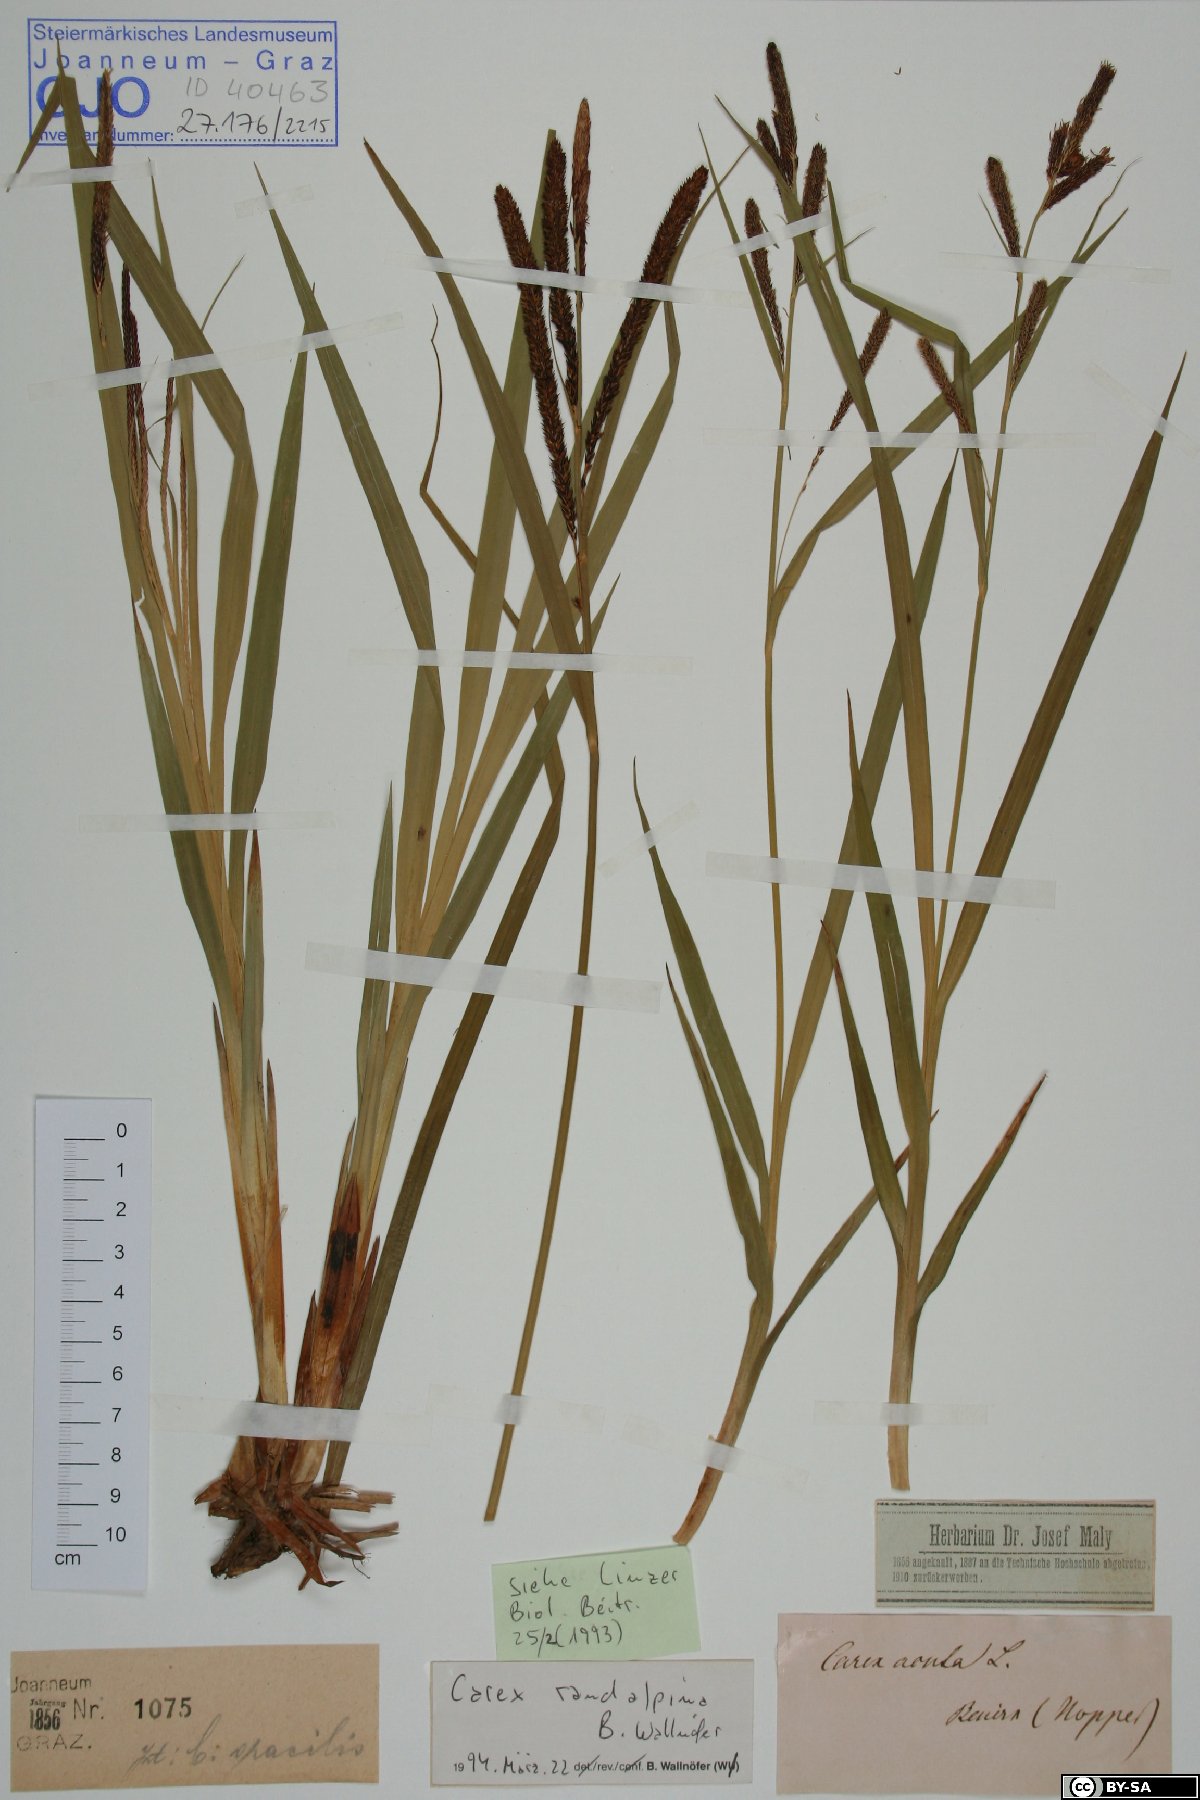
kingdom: Plantae
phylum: Tracheophyta
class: Liliopsida
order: Poales
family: Cyperaceae
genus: Carex
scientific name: Carex randalpina
